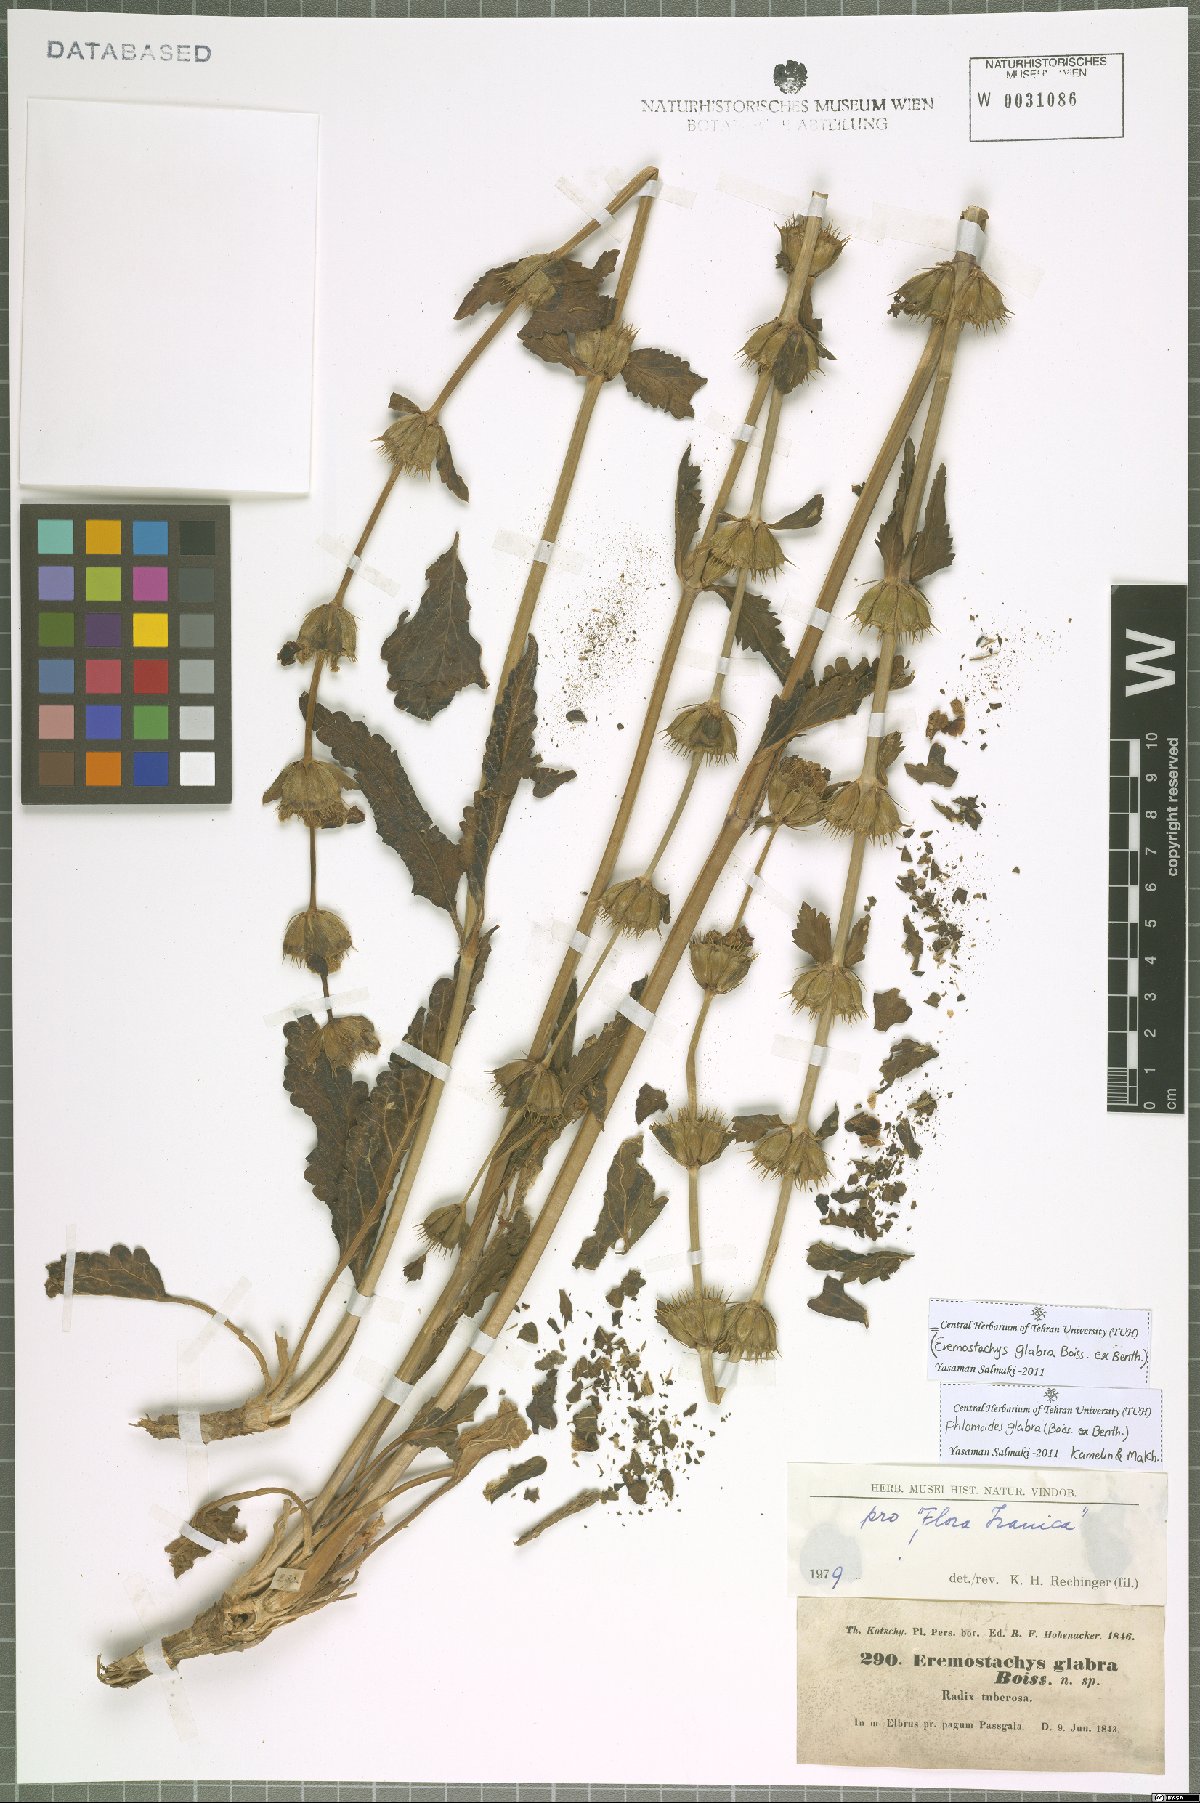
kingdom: Plantae
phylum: Tracheophyta
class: Magnoliopsida
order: Lamiales
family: Lamiaceae
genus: Phlomoides
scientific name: Phlomoides glabra
